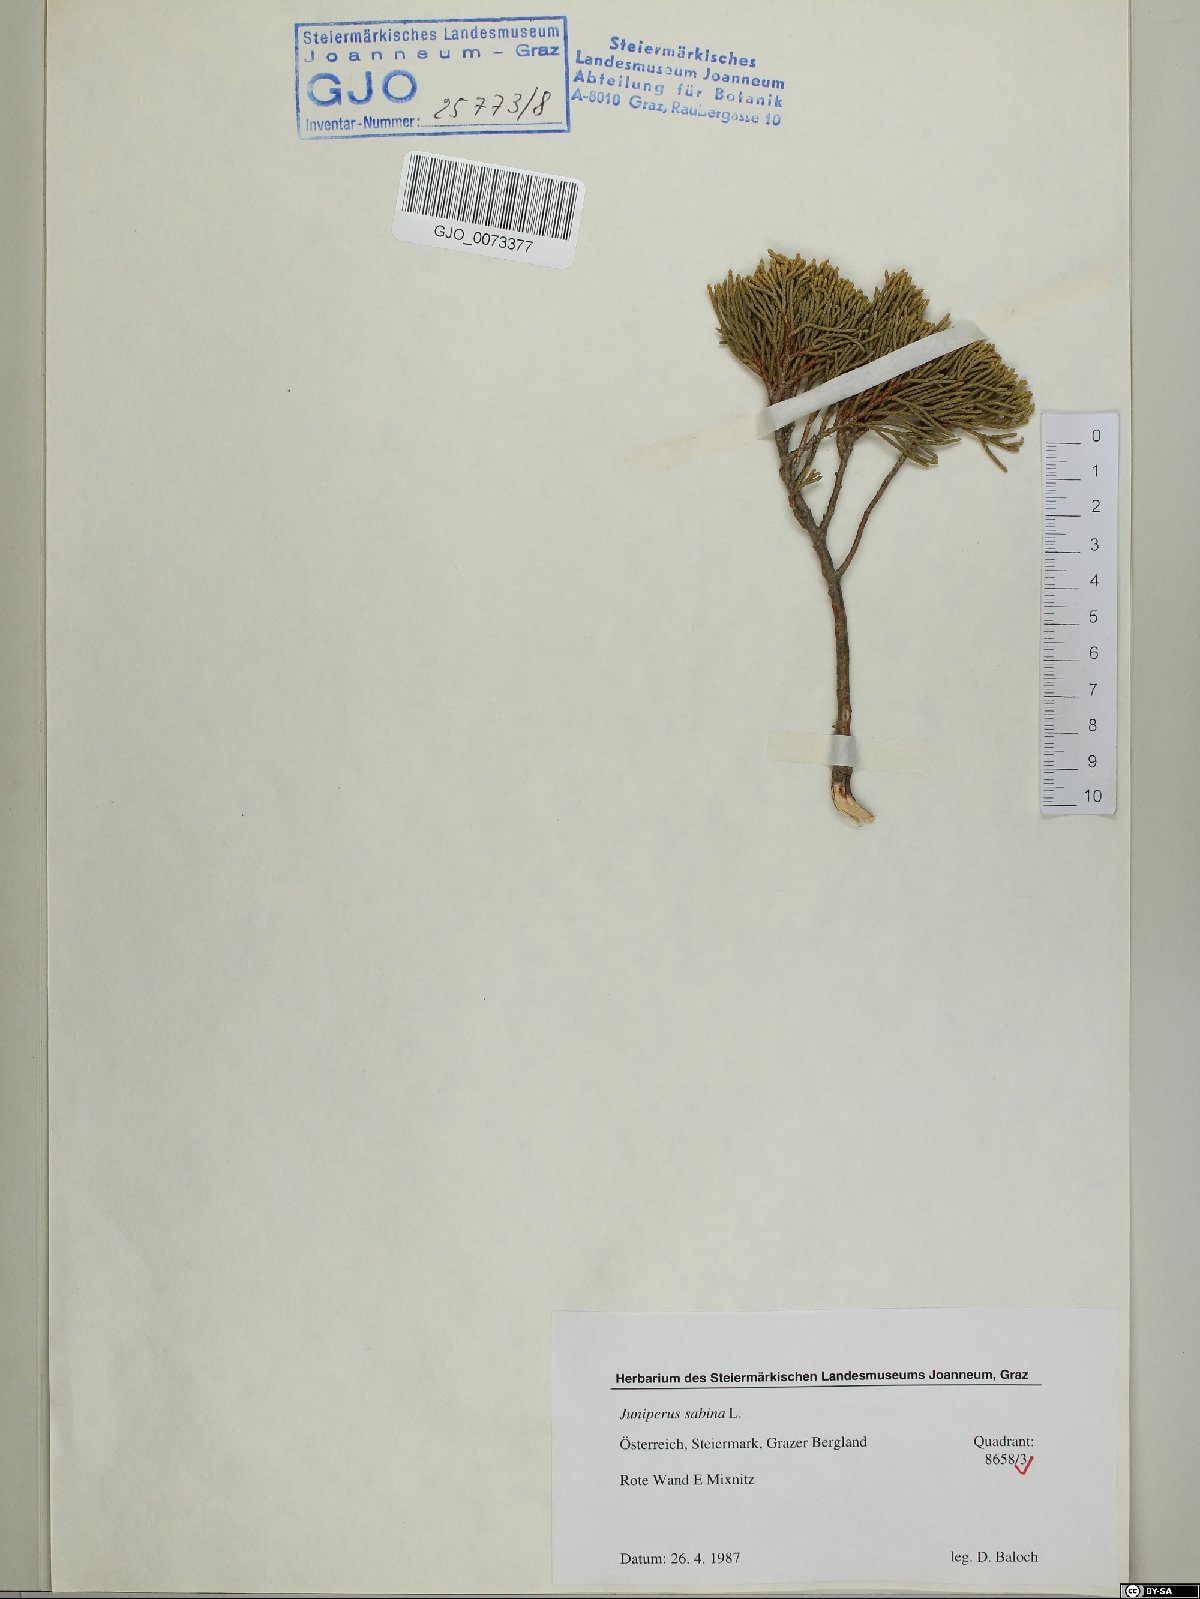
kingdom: Plantae
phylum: Tracheophyta
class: Pinopsida
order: Pinales
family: Cupressaceae
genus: Juniperus
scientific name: Juniperus sabina
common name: Savin
